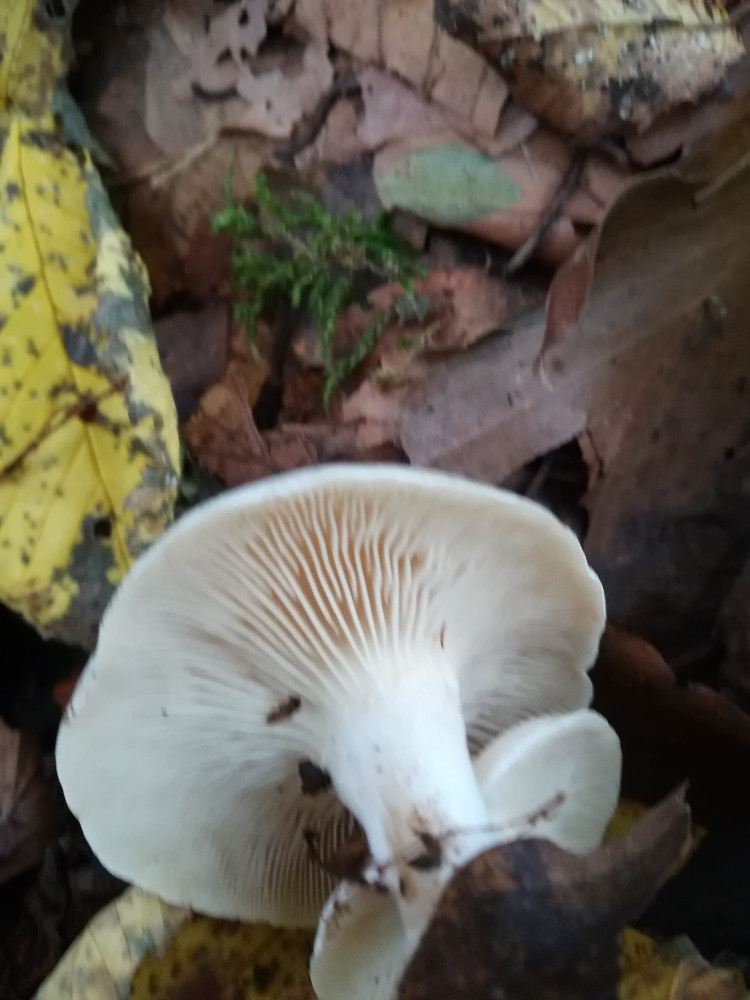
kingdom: Fungi
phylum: Basidiomycota
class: Agaricomycetes
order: Agaricales
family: Tricholomataceae
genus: Clitocybe
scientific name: Clitocybe phyllophila
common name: løv-tragthat
